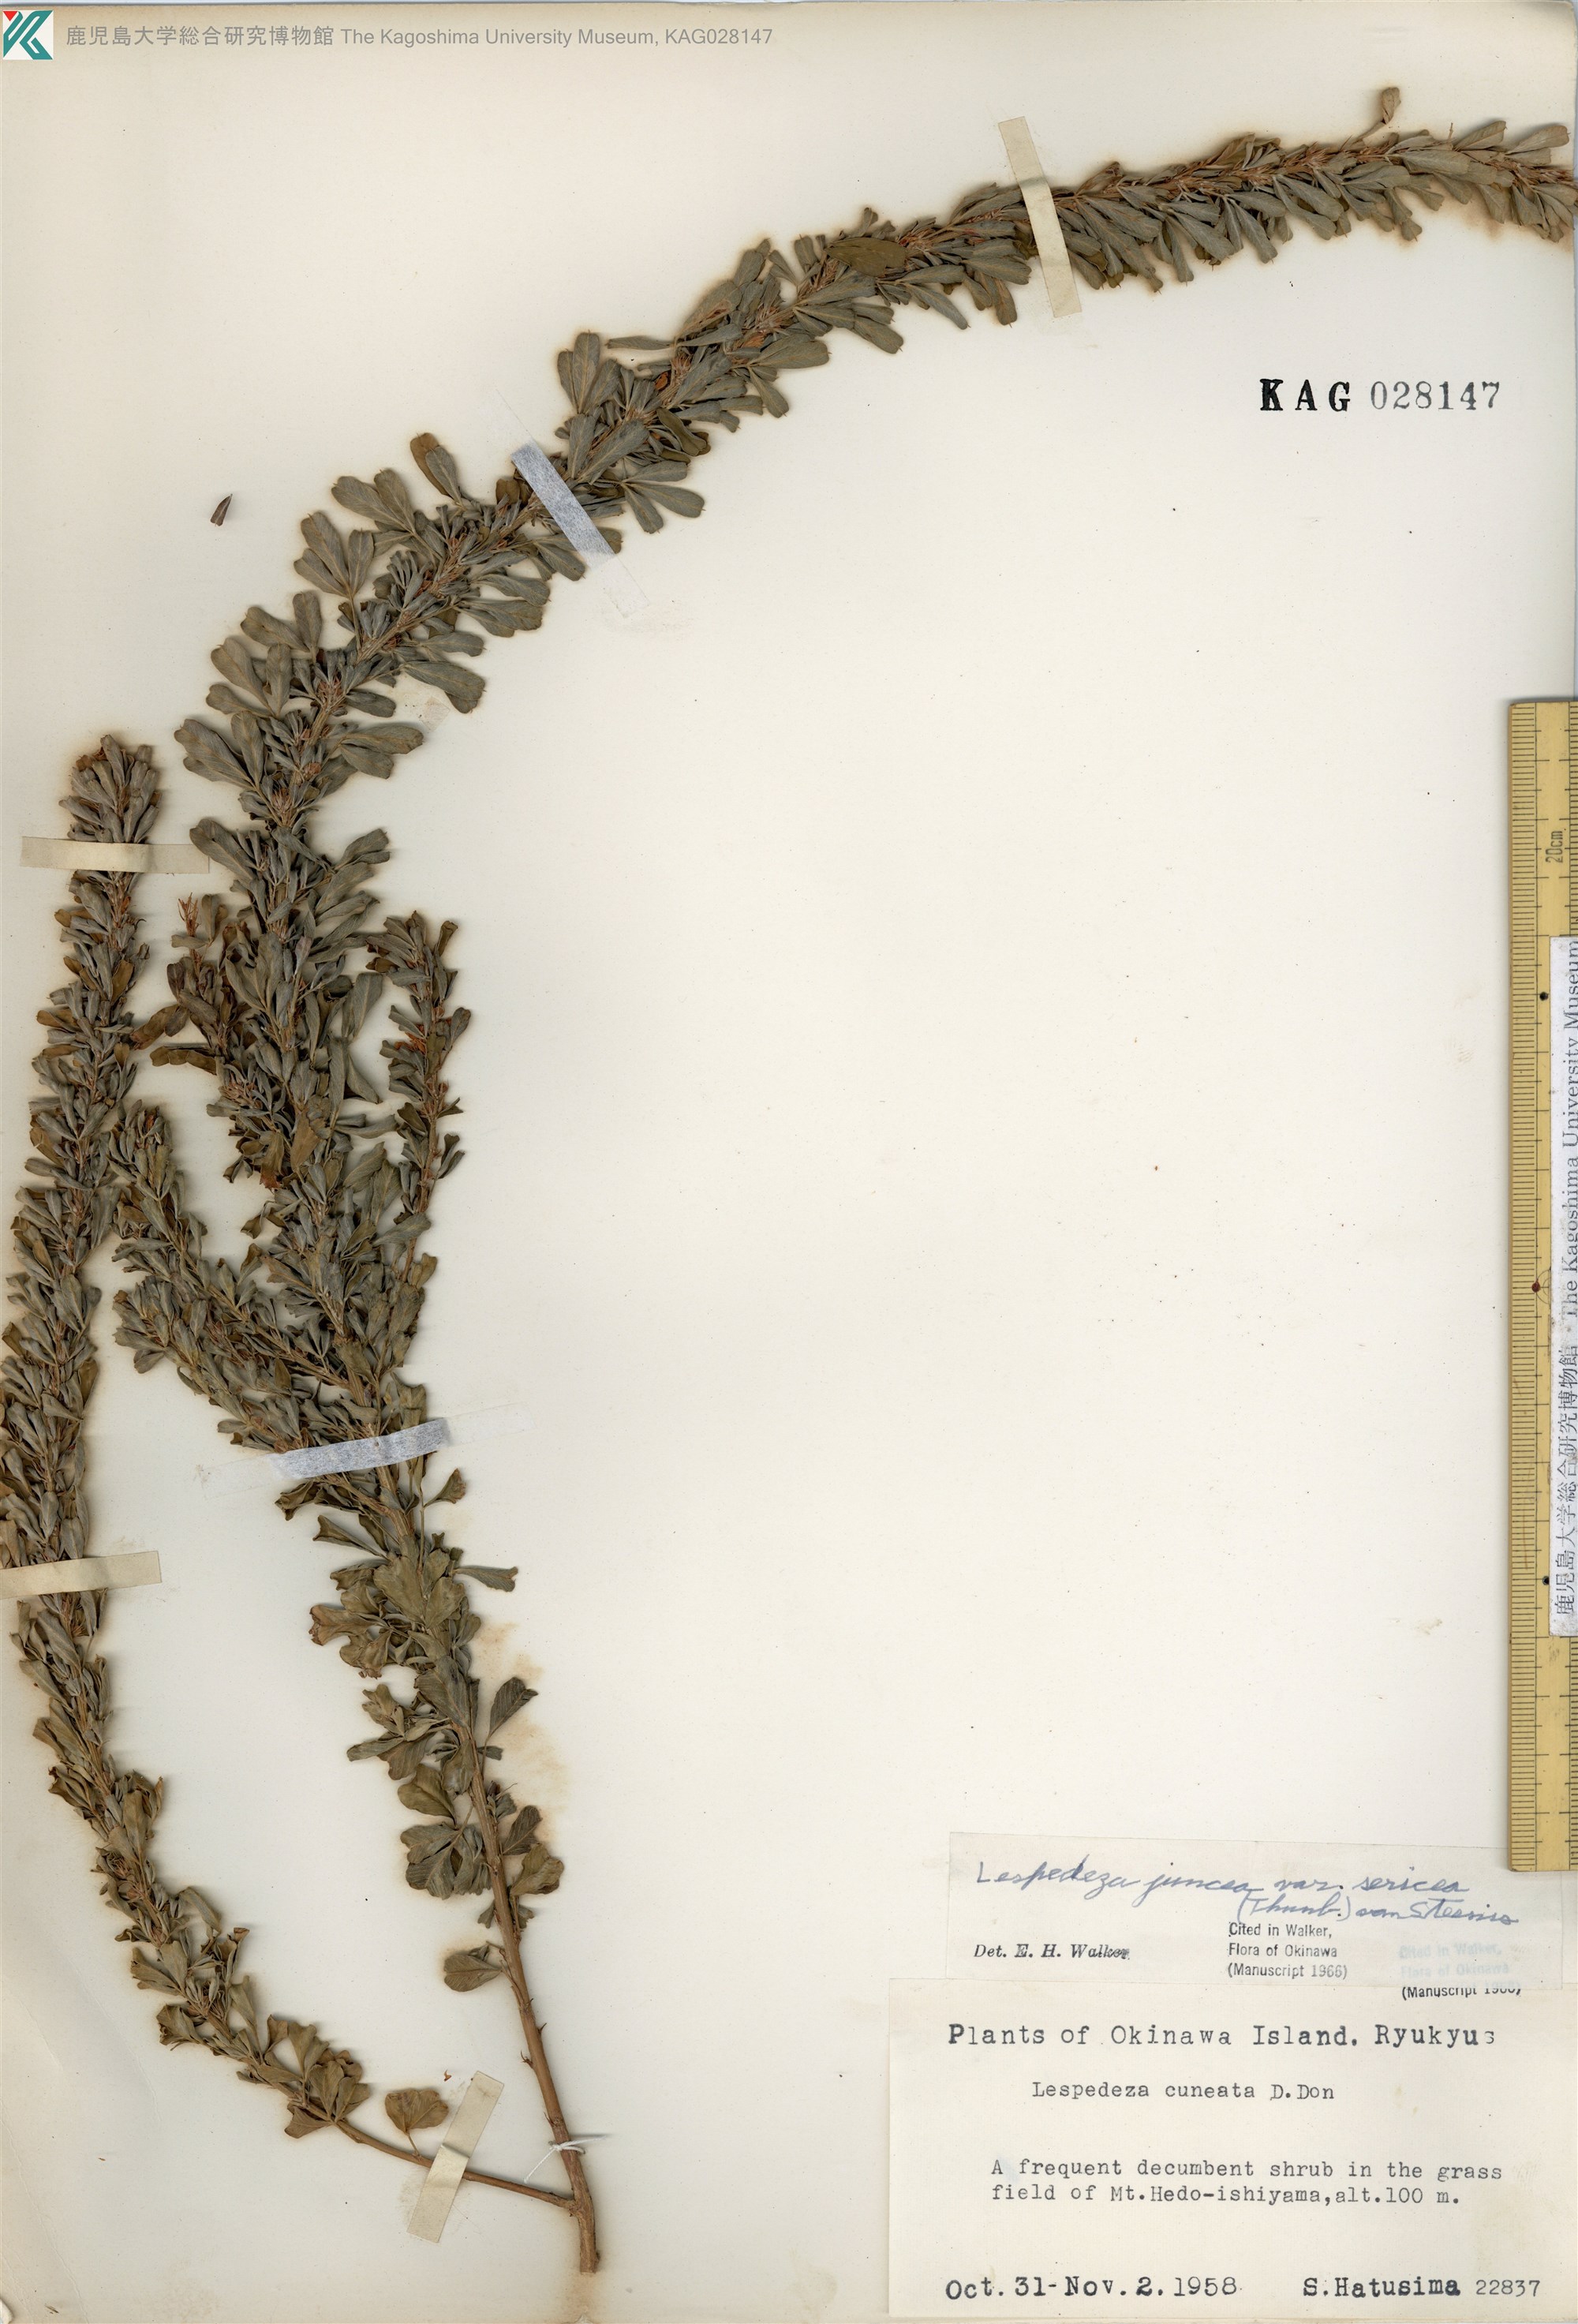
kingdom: Plantae
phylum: Tracheophyta
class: Magnoliopsida
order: Fabales
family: Fabaceae
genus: Lespedeza
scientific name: Lespedeza cuneata
